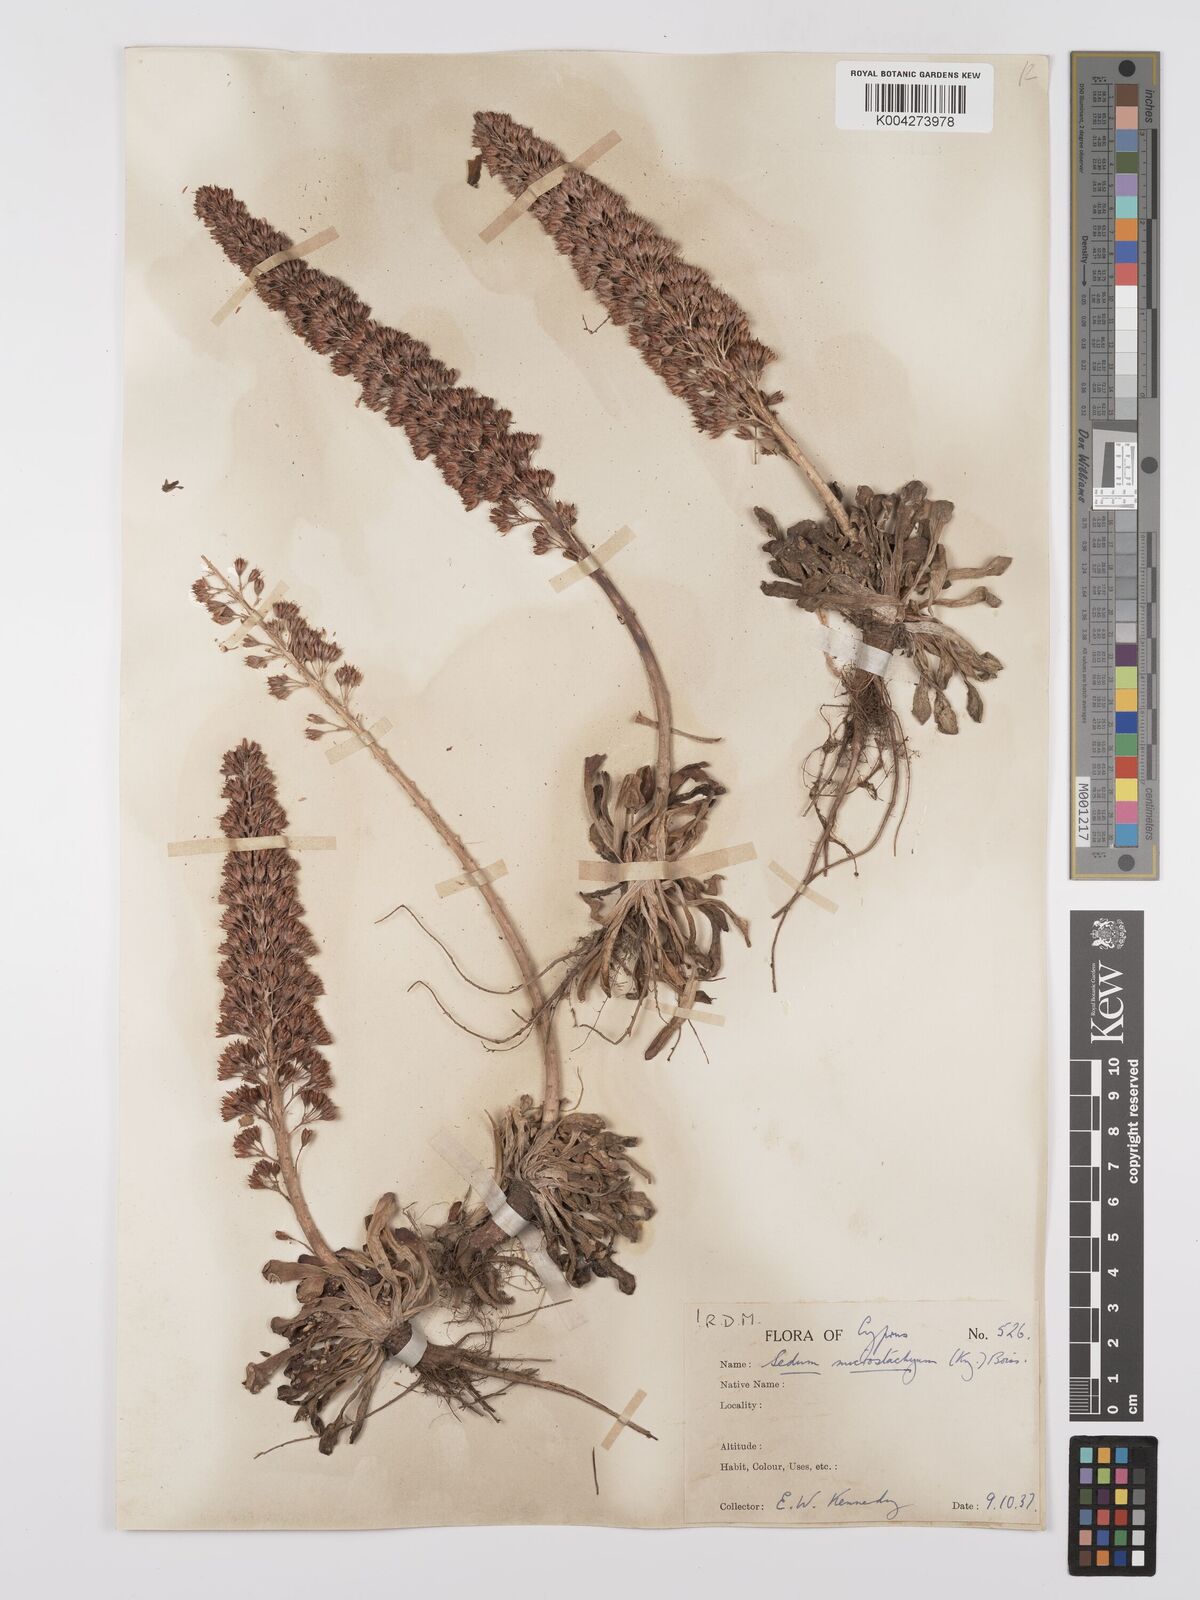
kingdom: Plantae
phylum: Tracheophyta
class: Magnoliopsida
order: Saxifragales
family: Crassulaceae
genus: Sedum
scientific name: Sedum microstachyum
